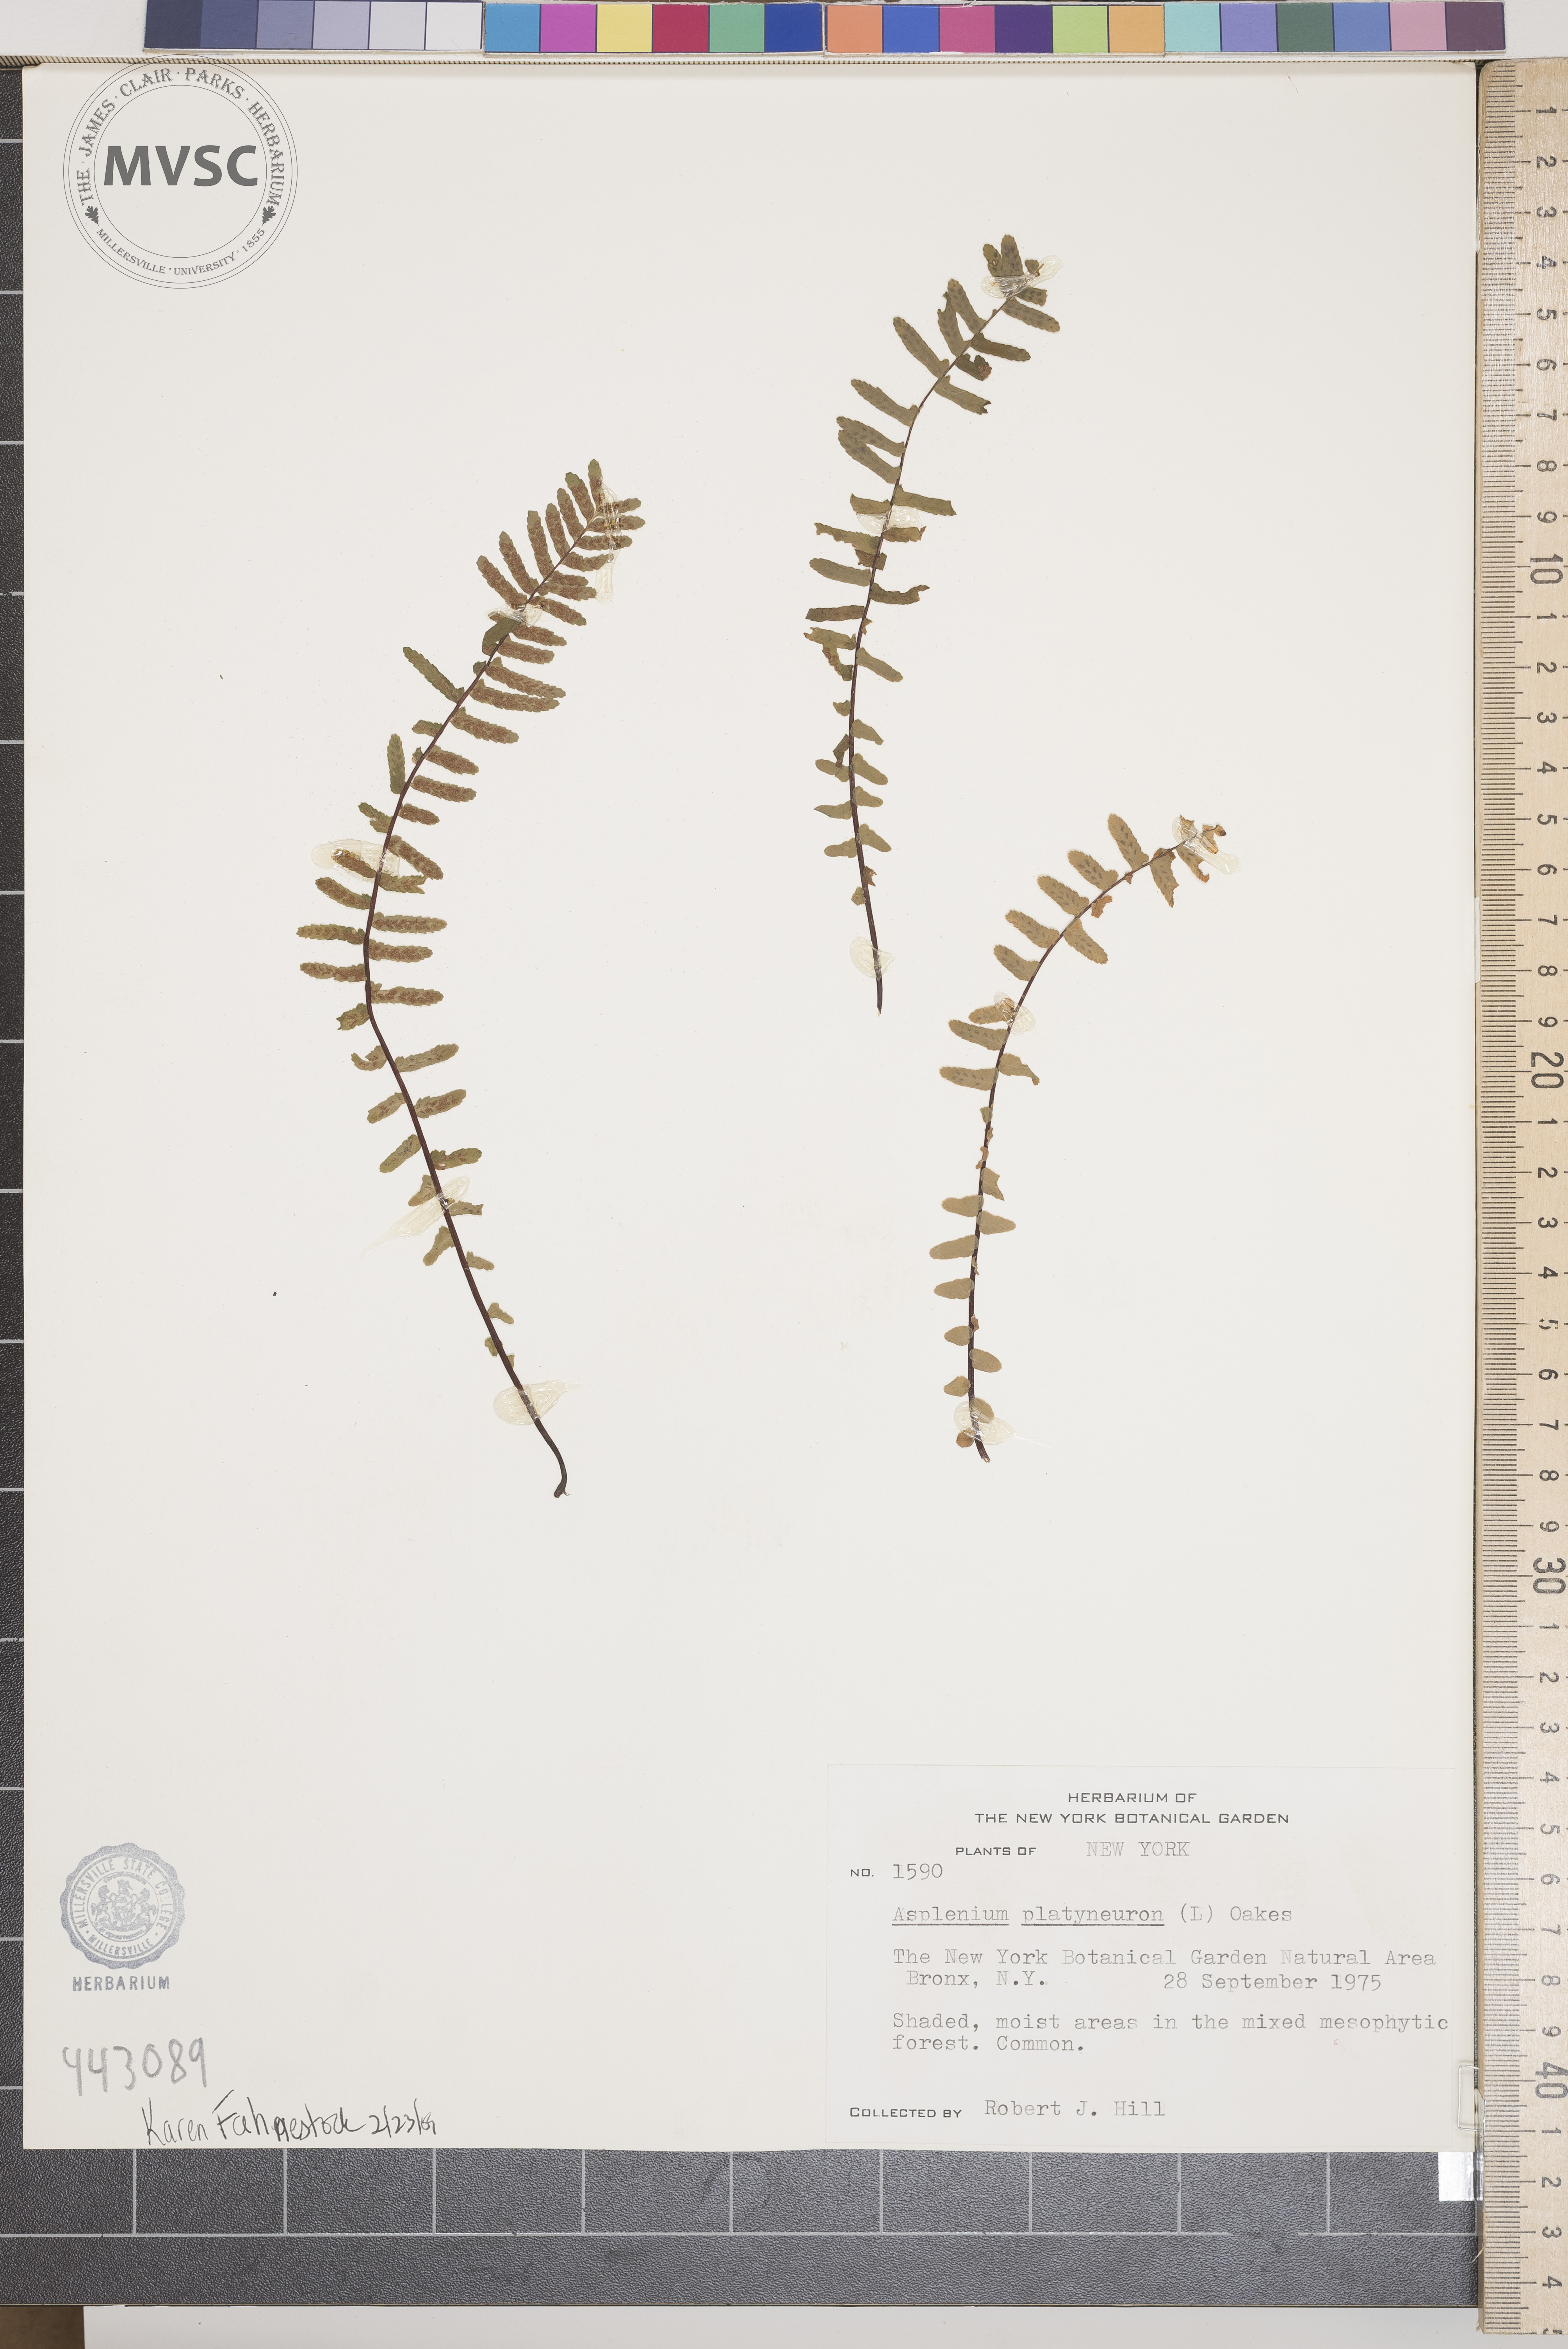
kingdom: Plantae
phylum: Tracheophyta
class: Polypodiopsida
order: Polypodiales
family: Aspleniaceae
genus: Asplenium
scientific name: Asplenium platyneuron
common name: Ebony spleenwort
